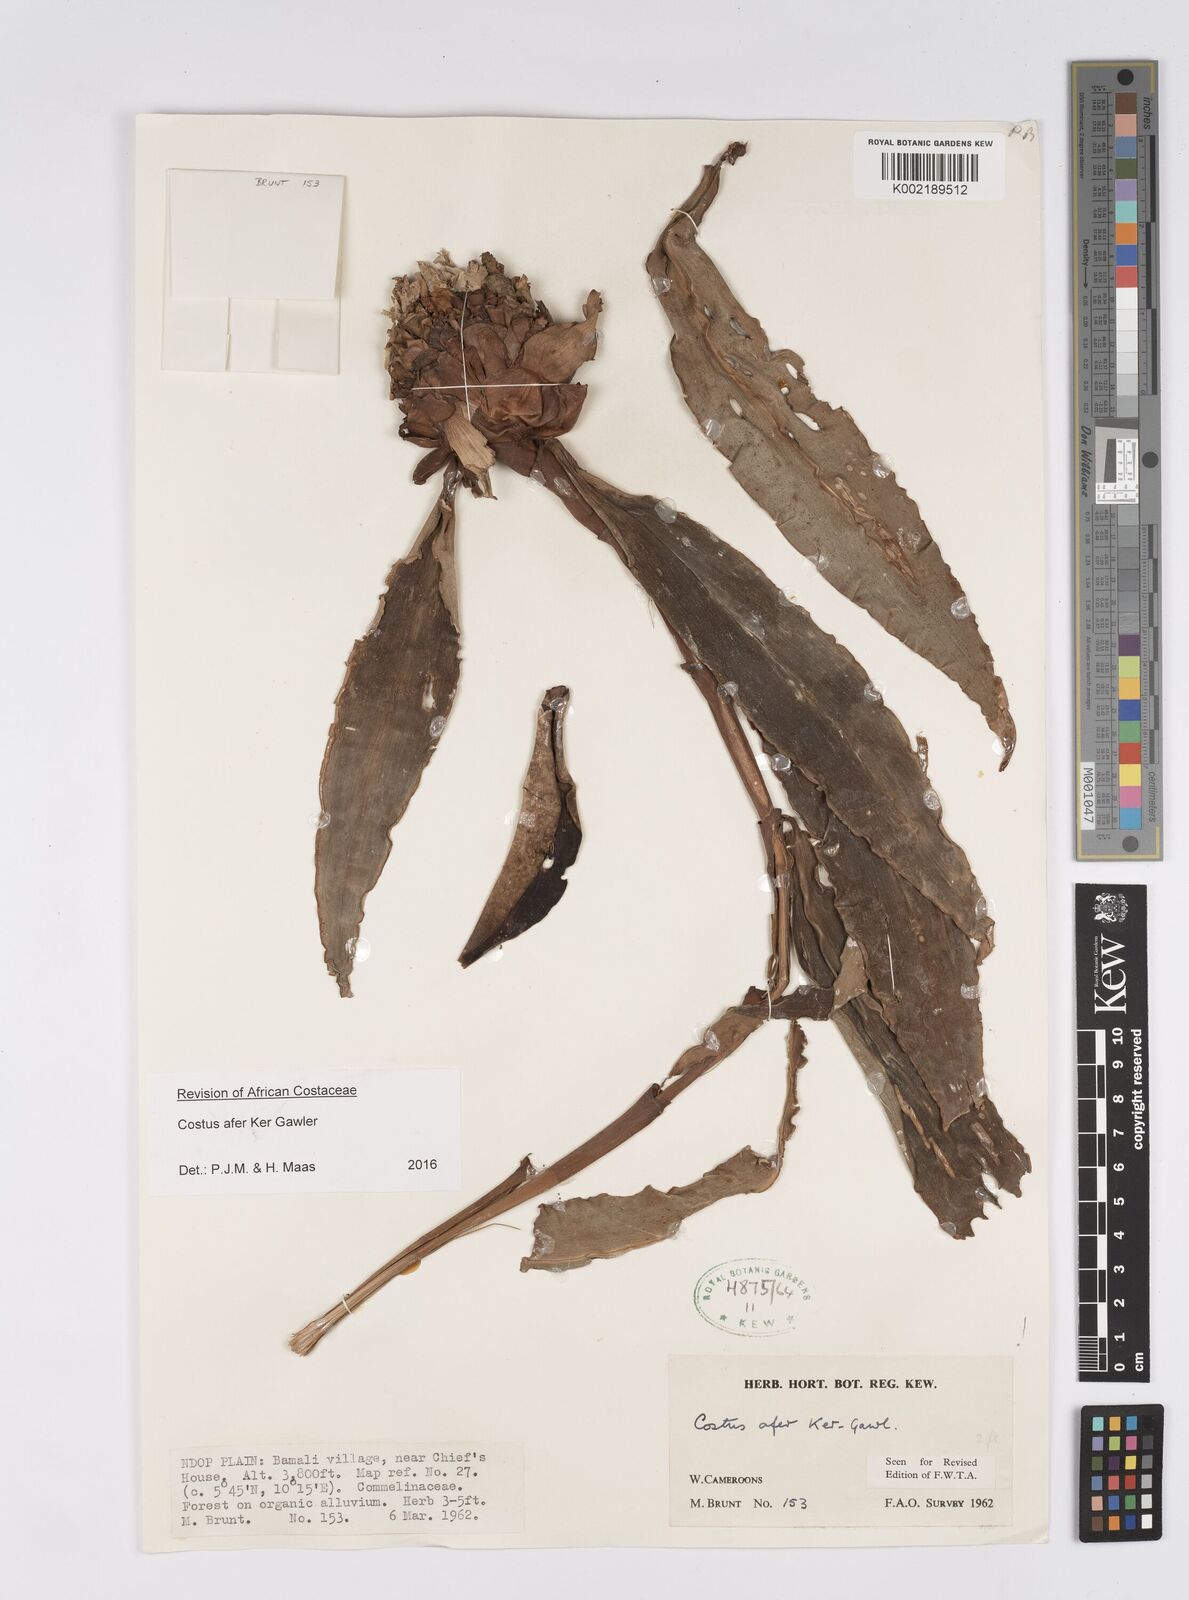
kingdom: Plantae
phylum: Tracheophyta
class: Liliopsida
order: Zingiberales
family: Costaceae
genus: Costus
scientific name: Costus afer
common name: Spiral-ginger
